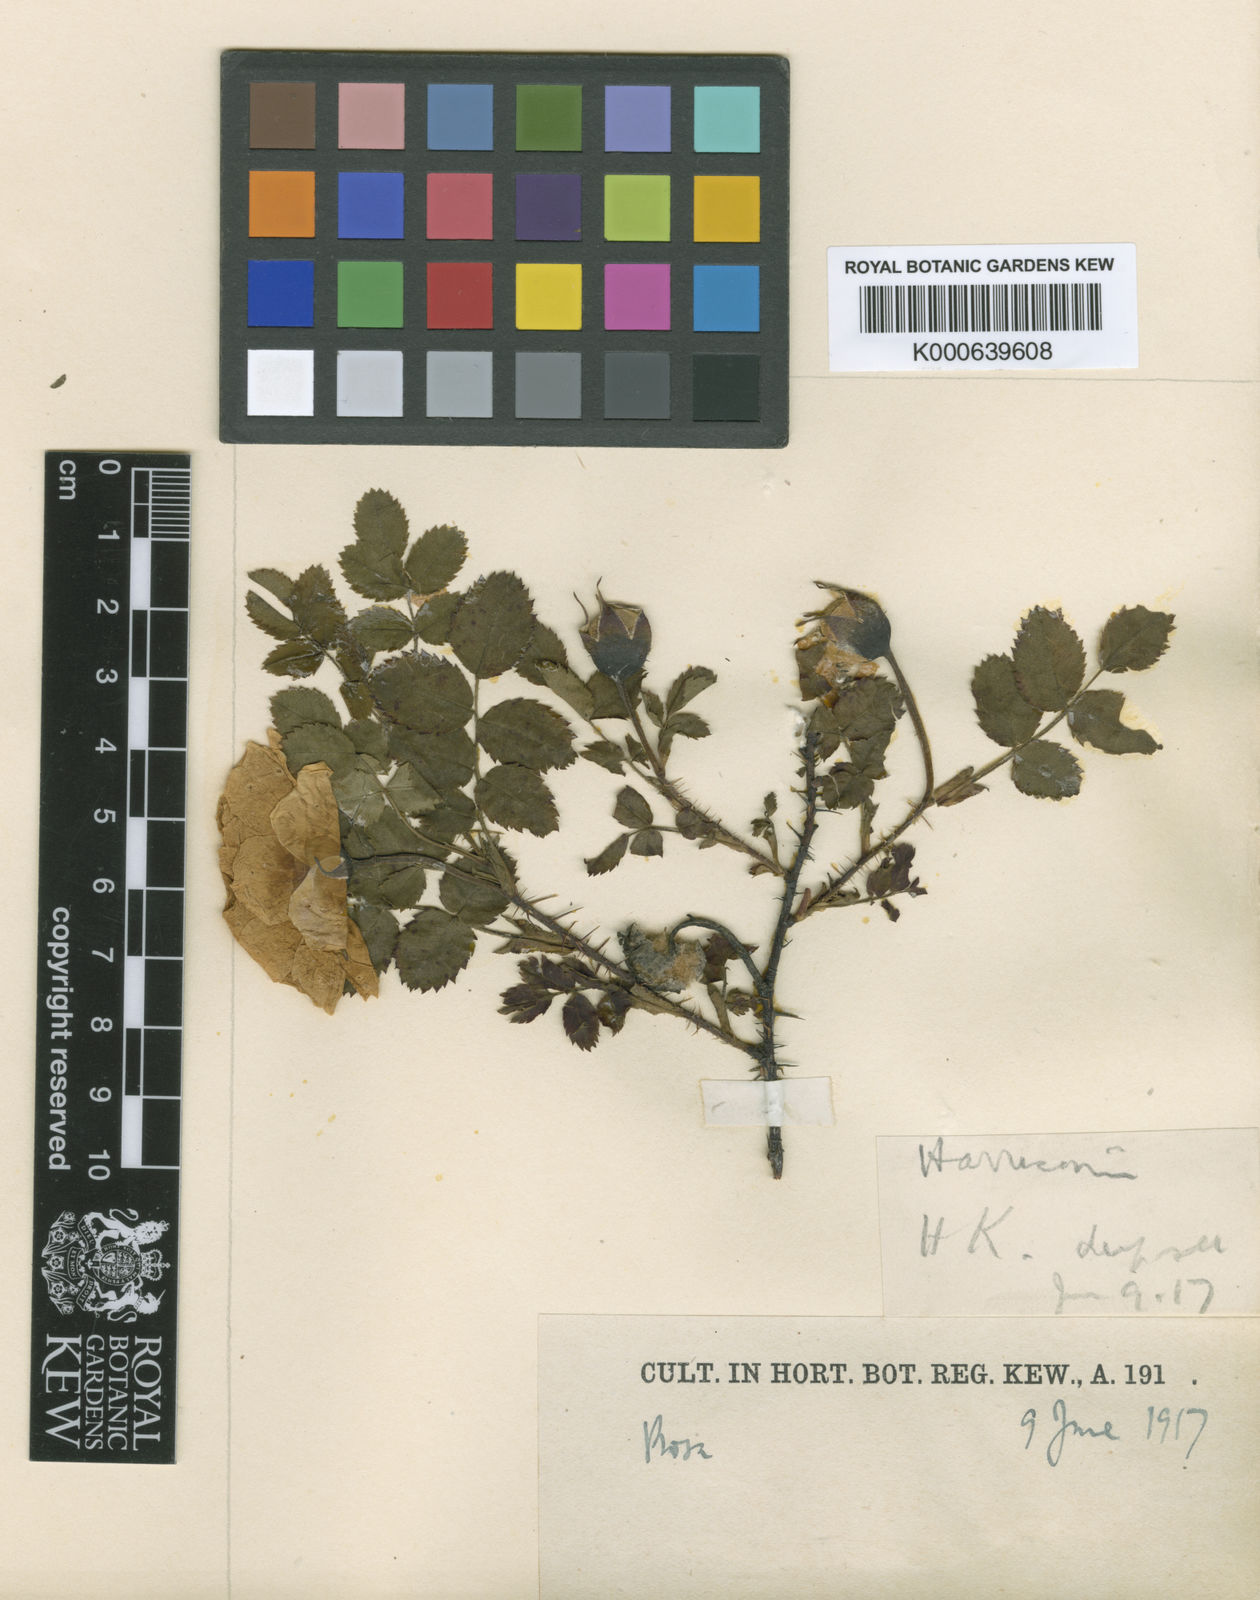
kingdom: Plantae
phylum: Tracheophyta
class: Magnoliopsida
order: Rosales
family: Rosaceae
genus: Rosa
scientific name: Rosa
